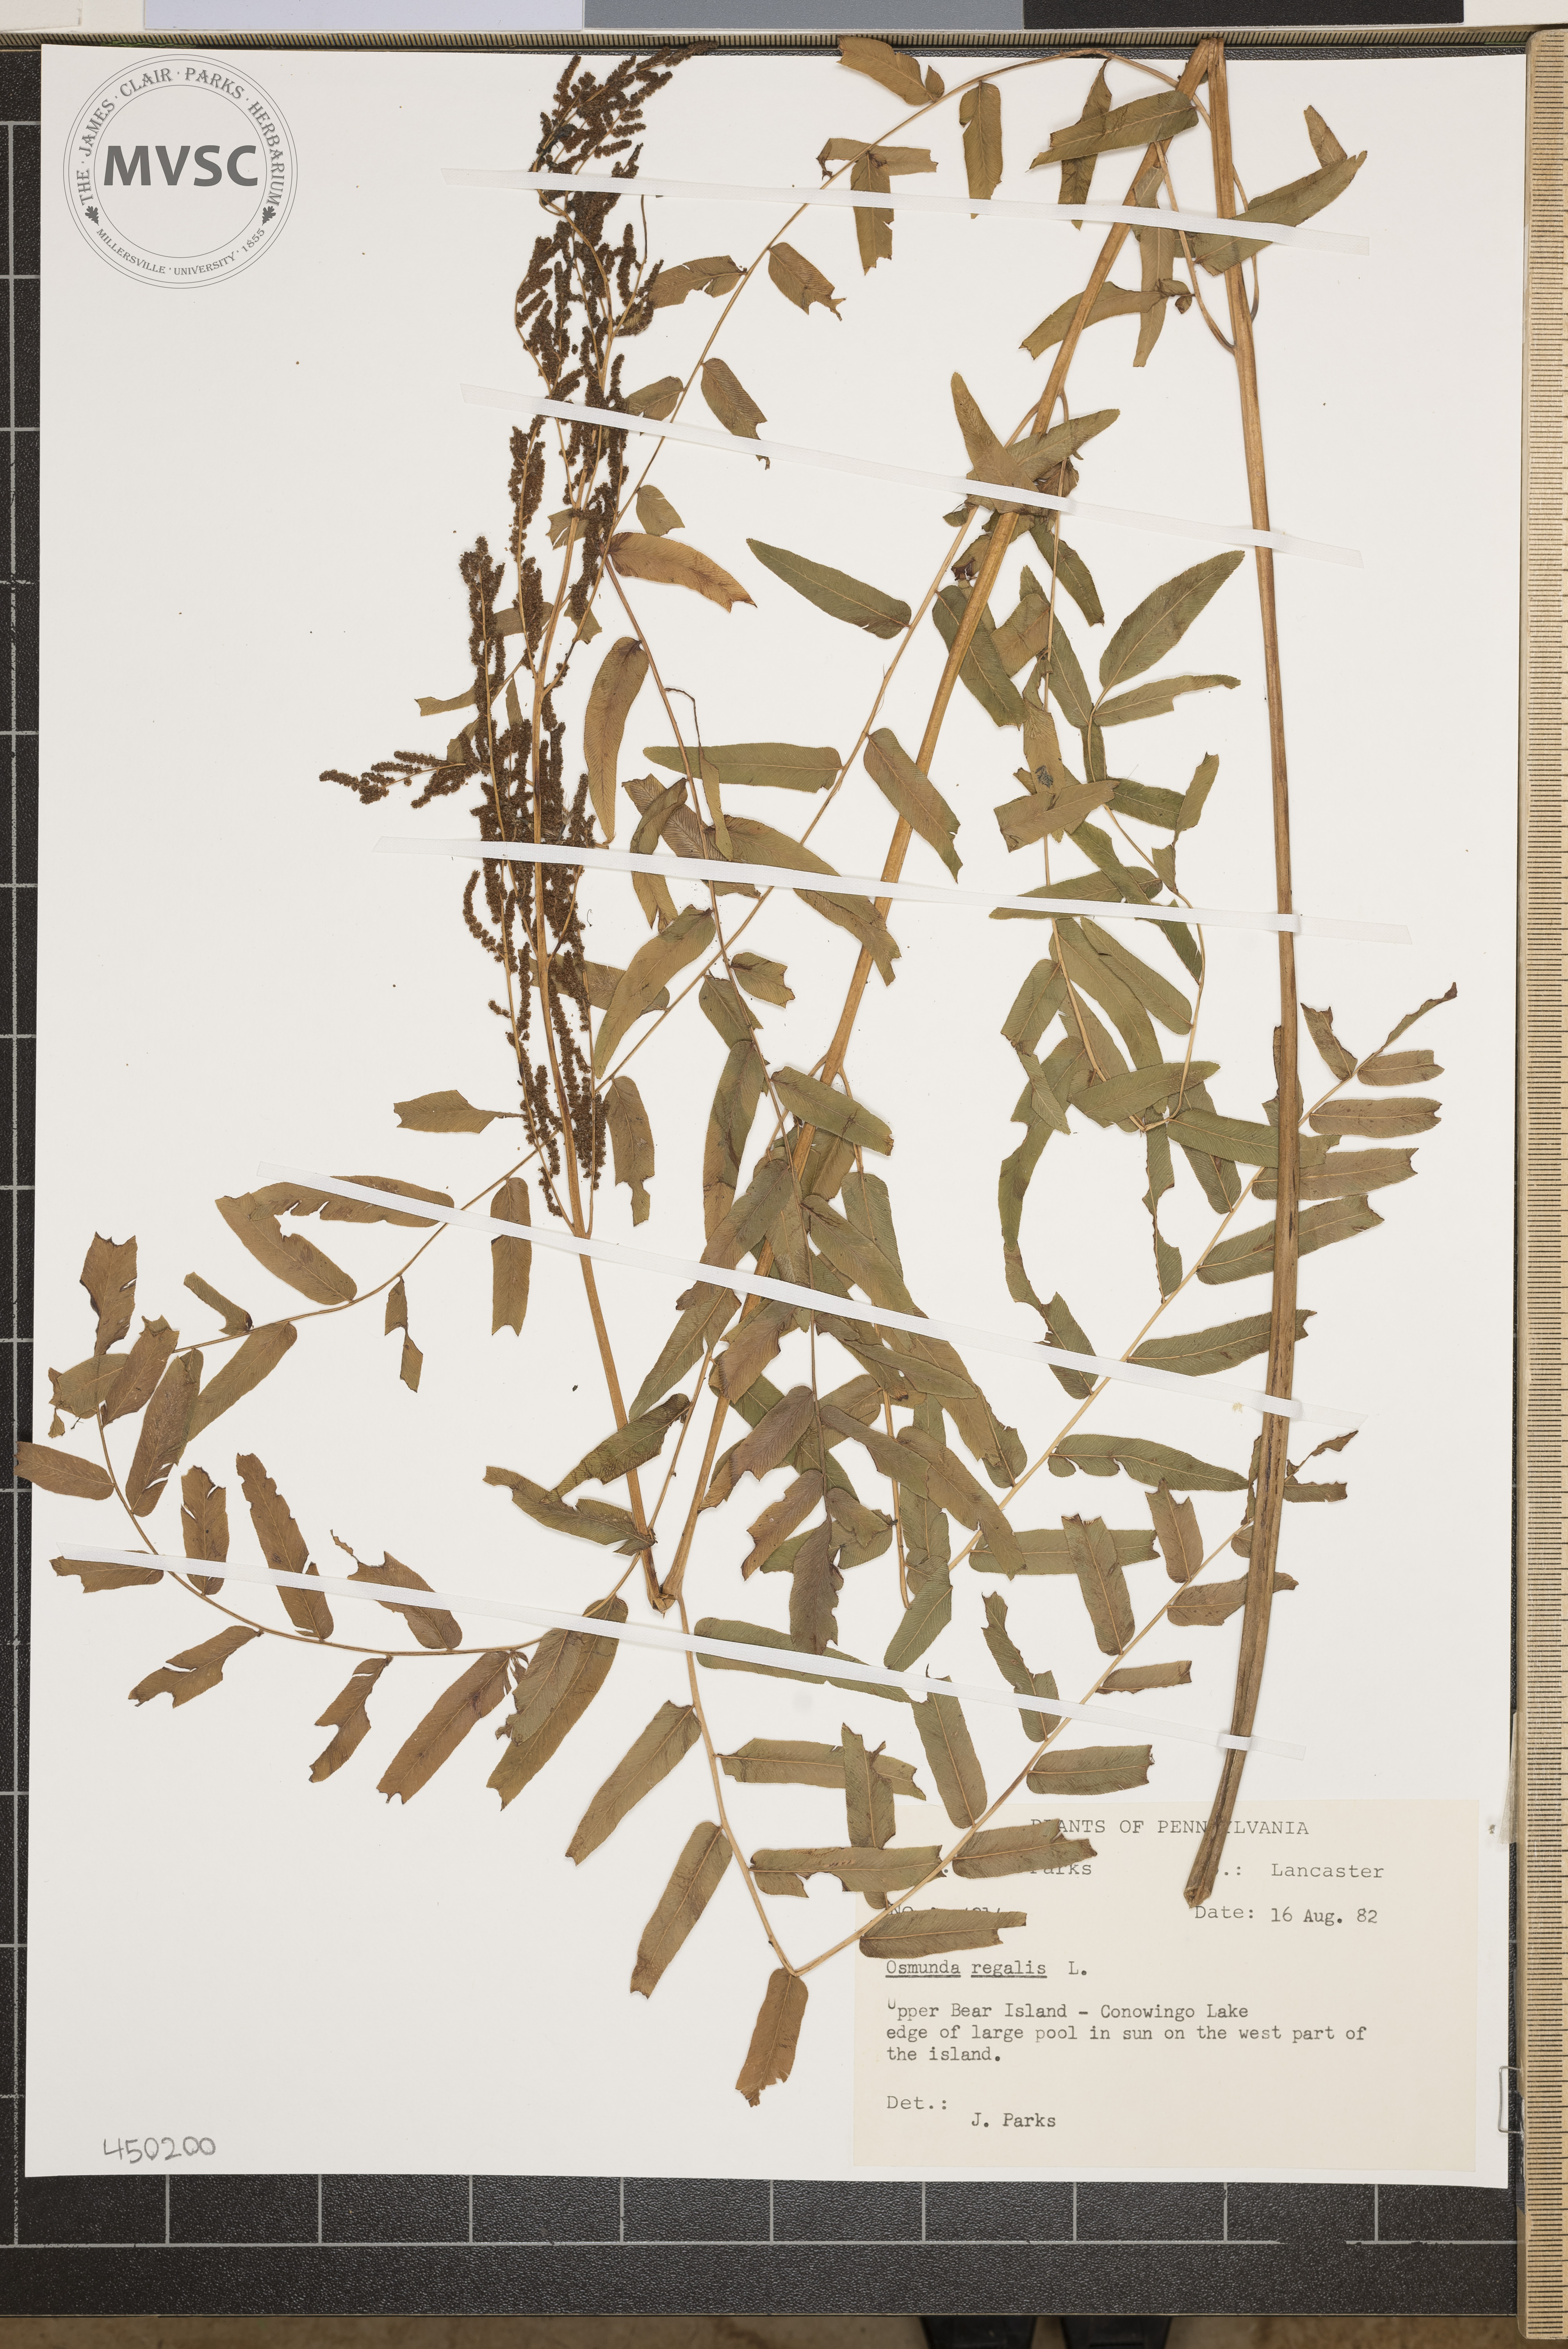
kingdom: Plantae
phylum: Tracheophyta
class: Polypodiopsida
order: Osmundales
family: Osmundaceae
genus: Osmunda
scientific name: Osmunda regalis
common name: Royal Fern
